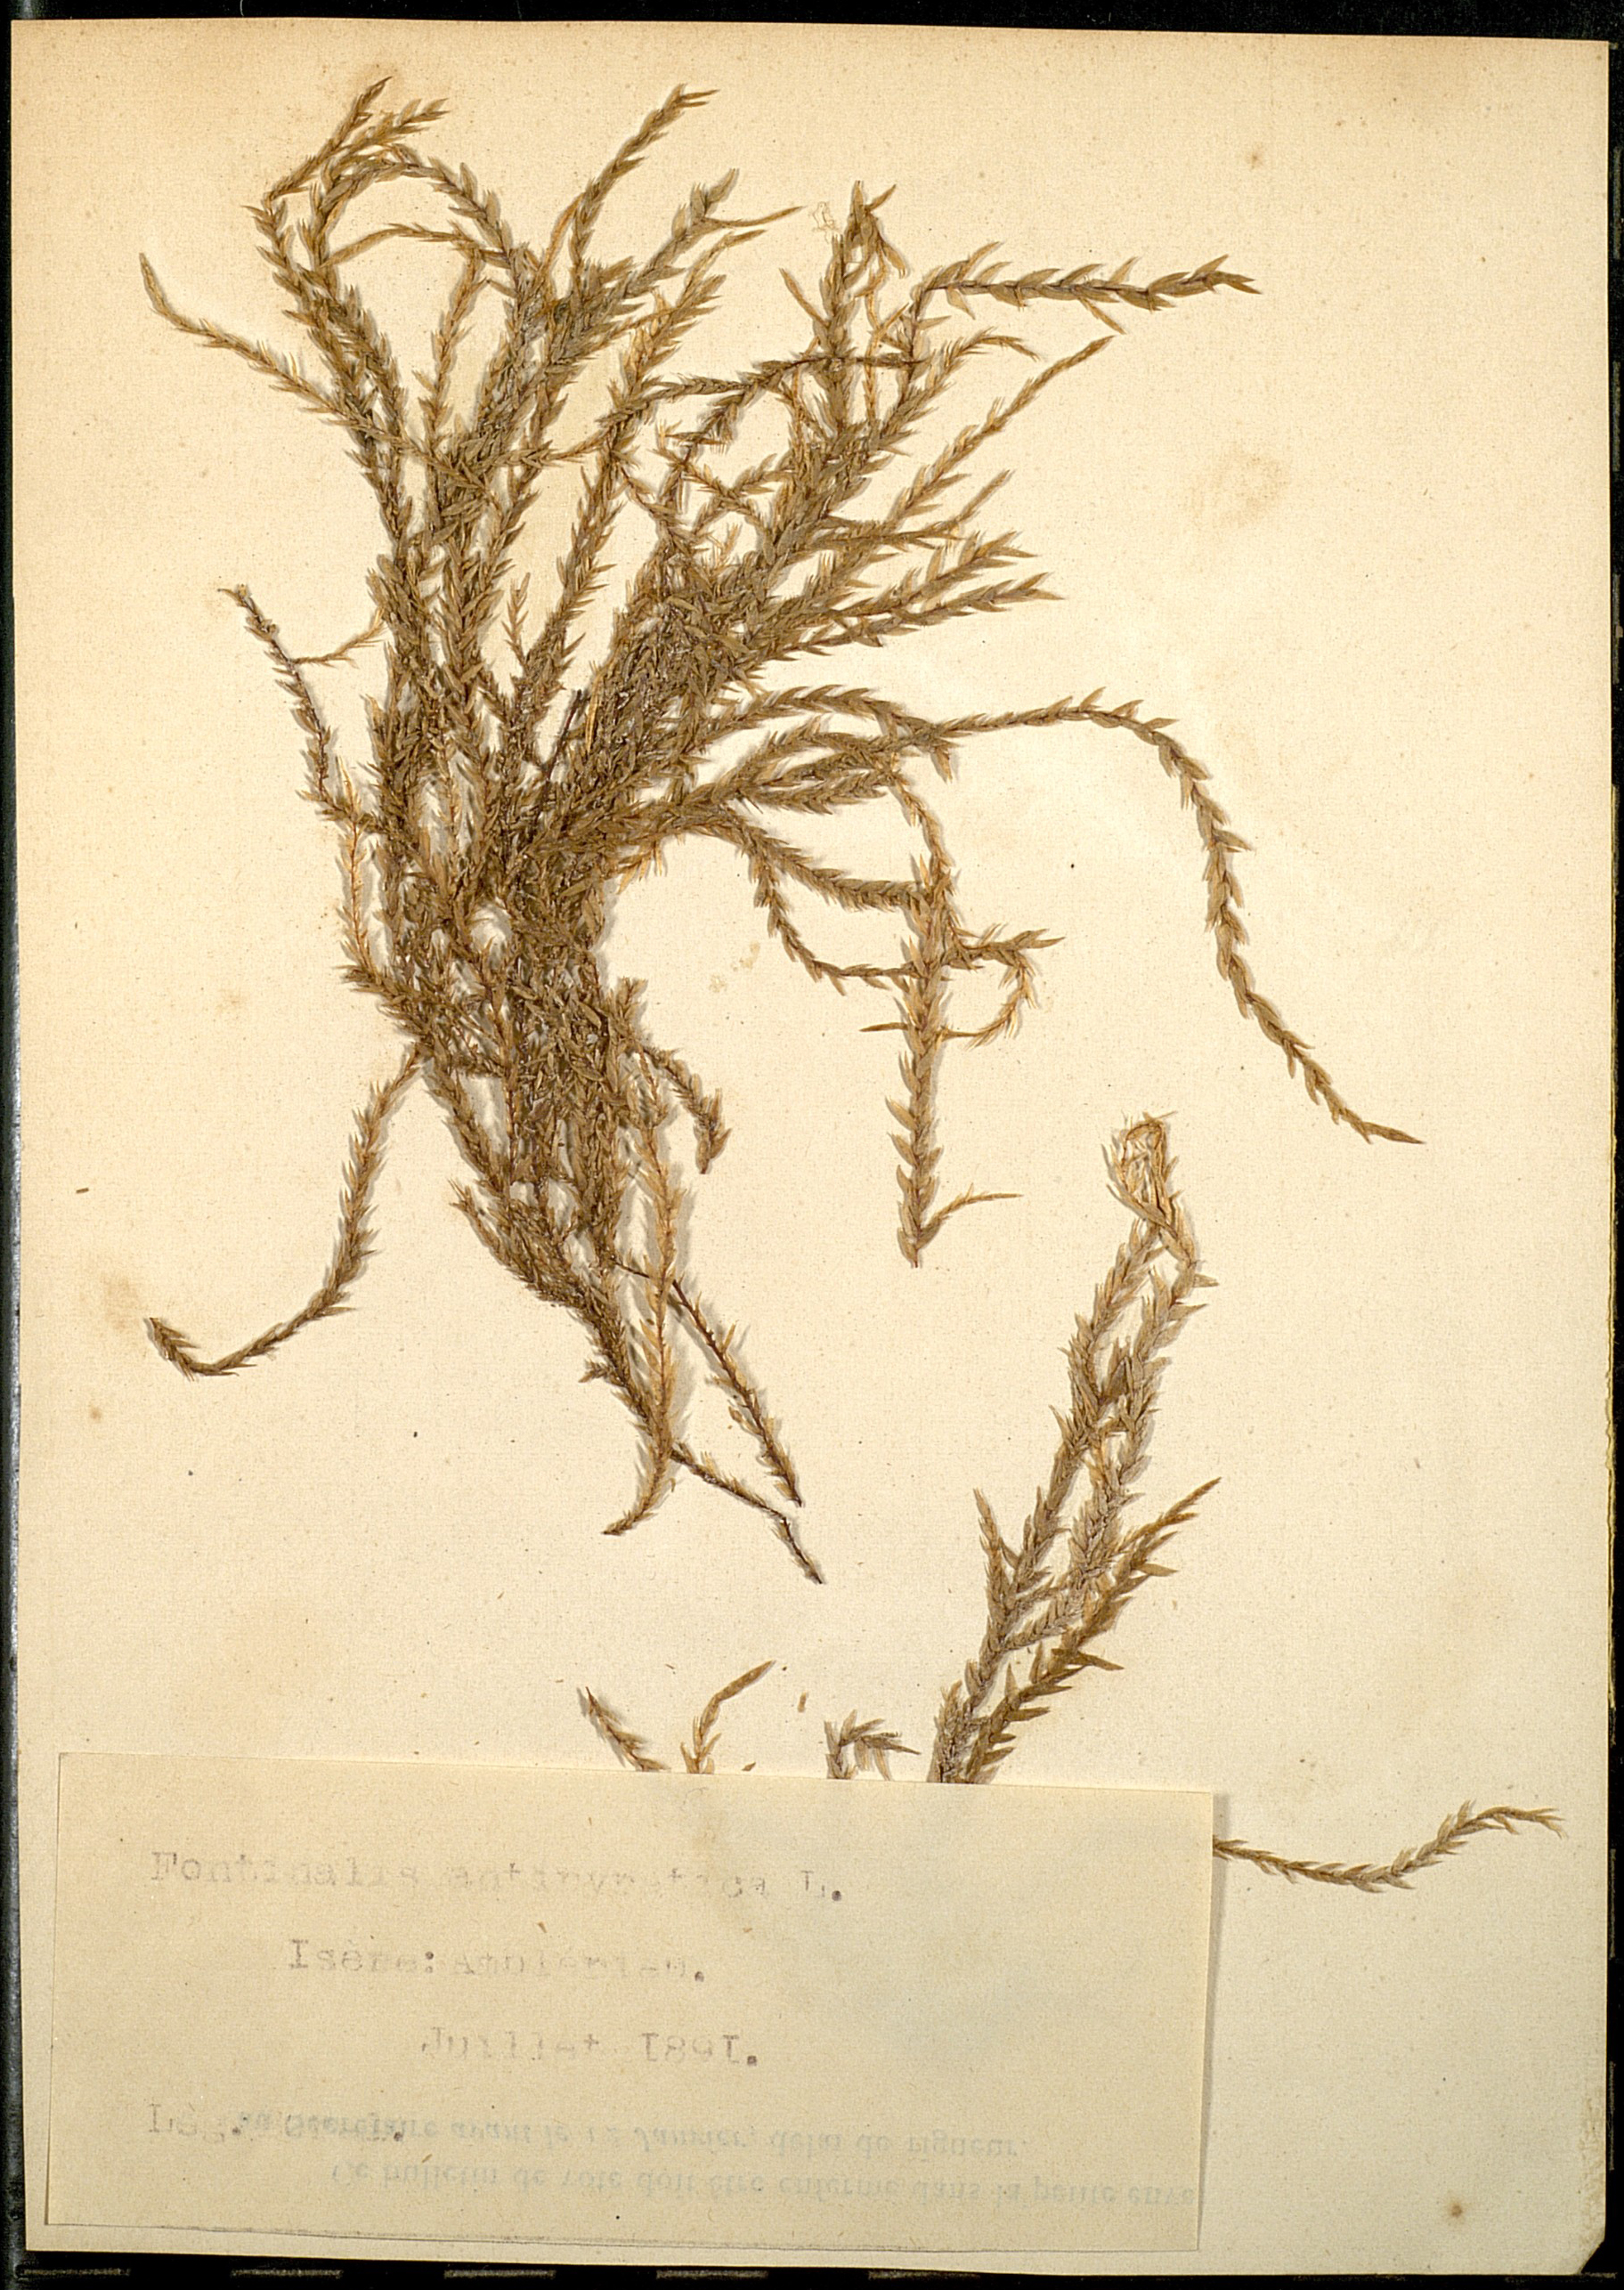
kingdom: Plantae
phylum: Bryophyta
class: Bryopsida
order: Hypnales
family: Fontinalaceae
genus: Fontinalis
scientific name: Fontinalis antipyretica
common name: Greater water-moss
